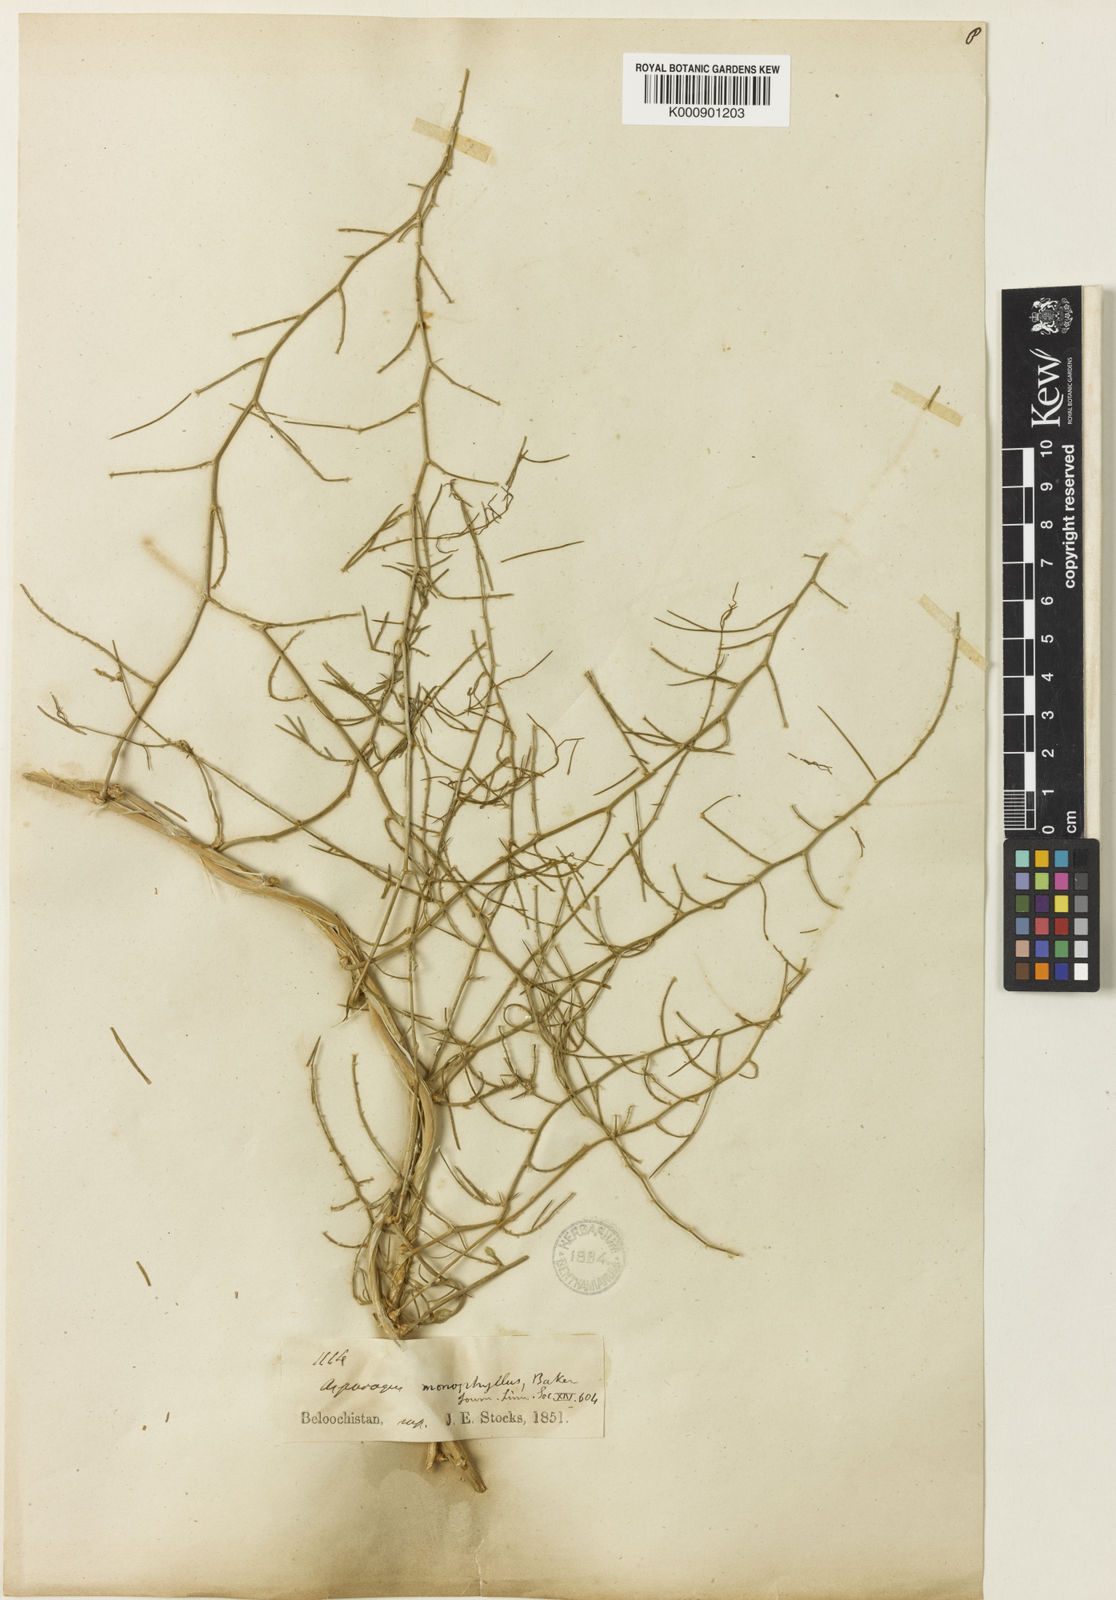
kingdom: Plantae
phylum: Tracheophyta
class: Liliopsida
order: Asparagales
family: Asparagaceae
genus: Asparagus
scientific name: Asparagus monophyllus
